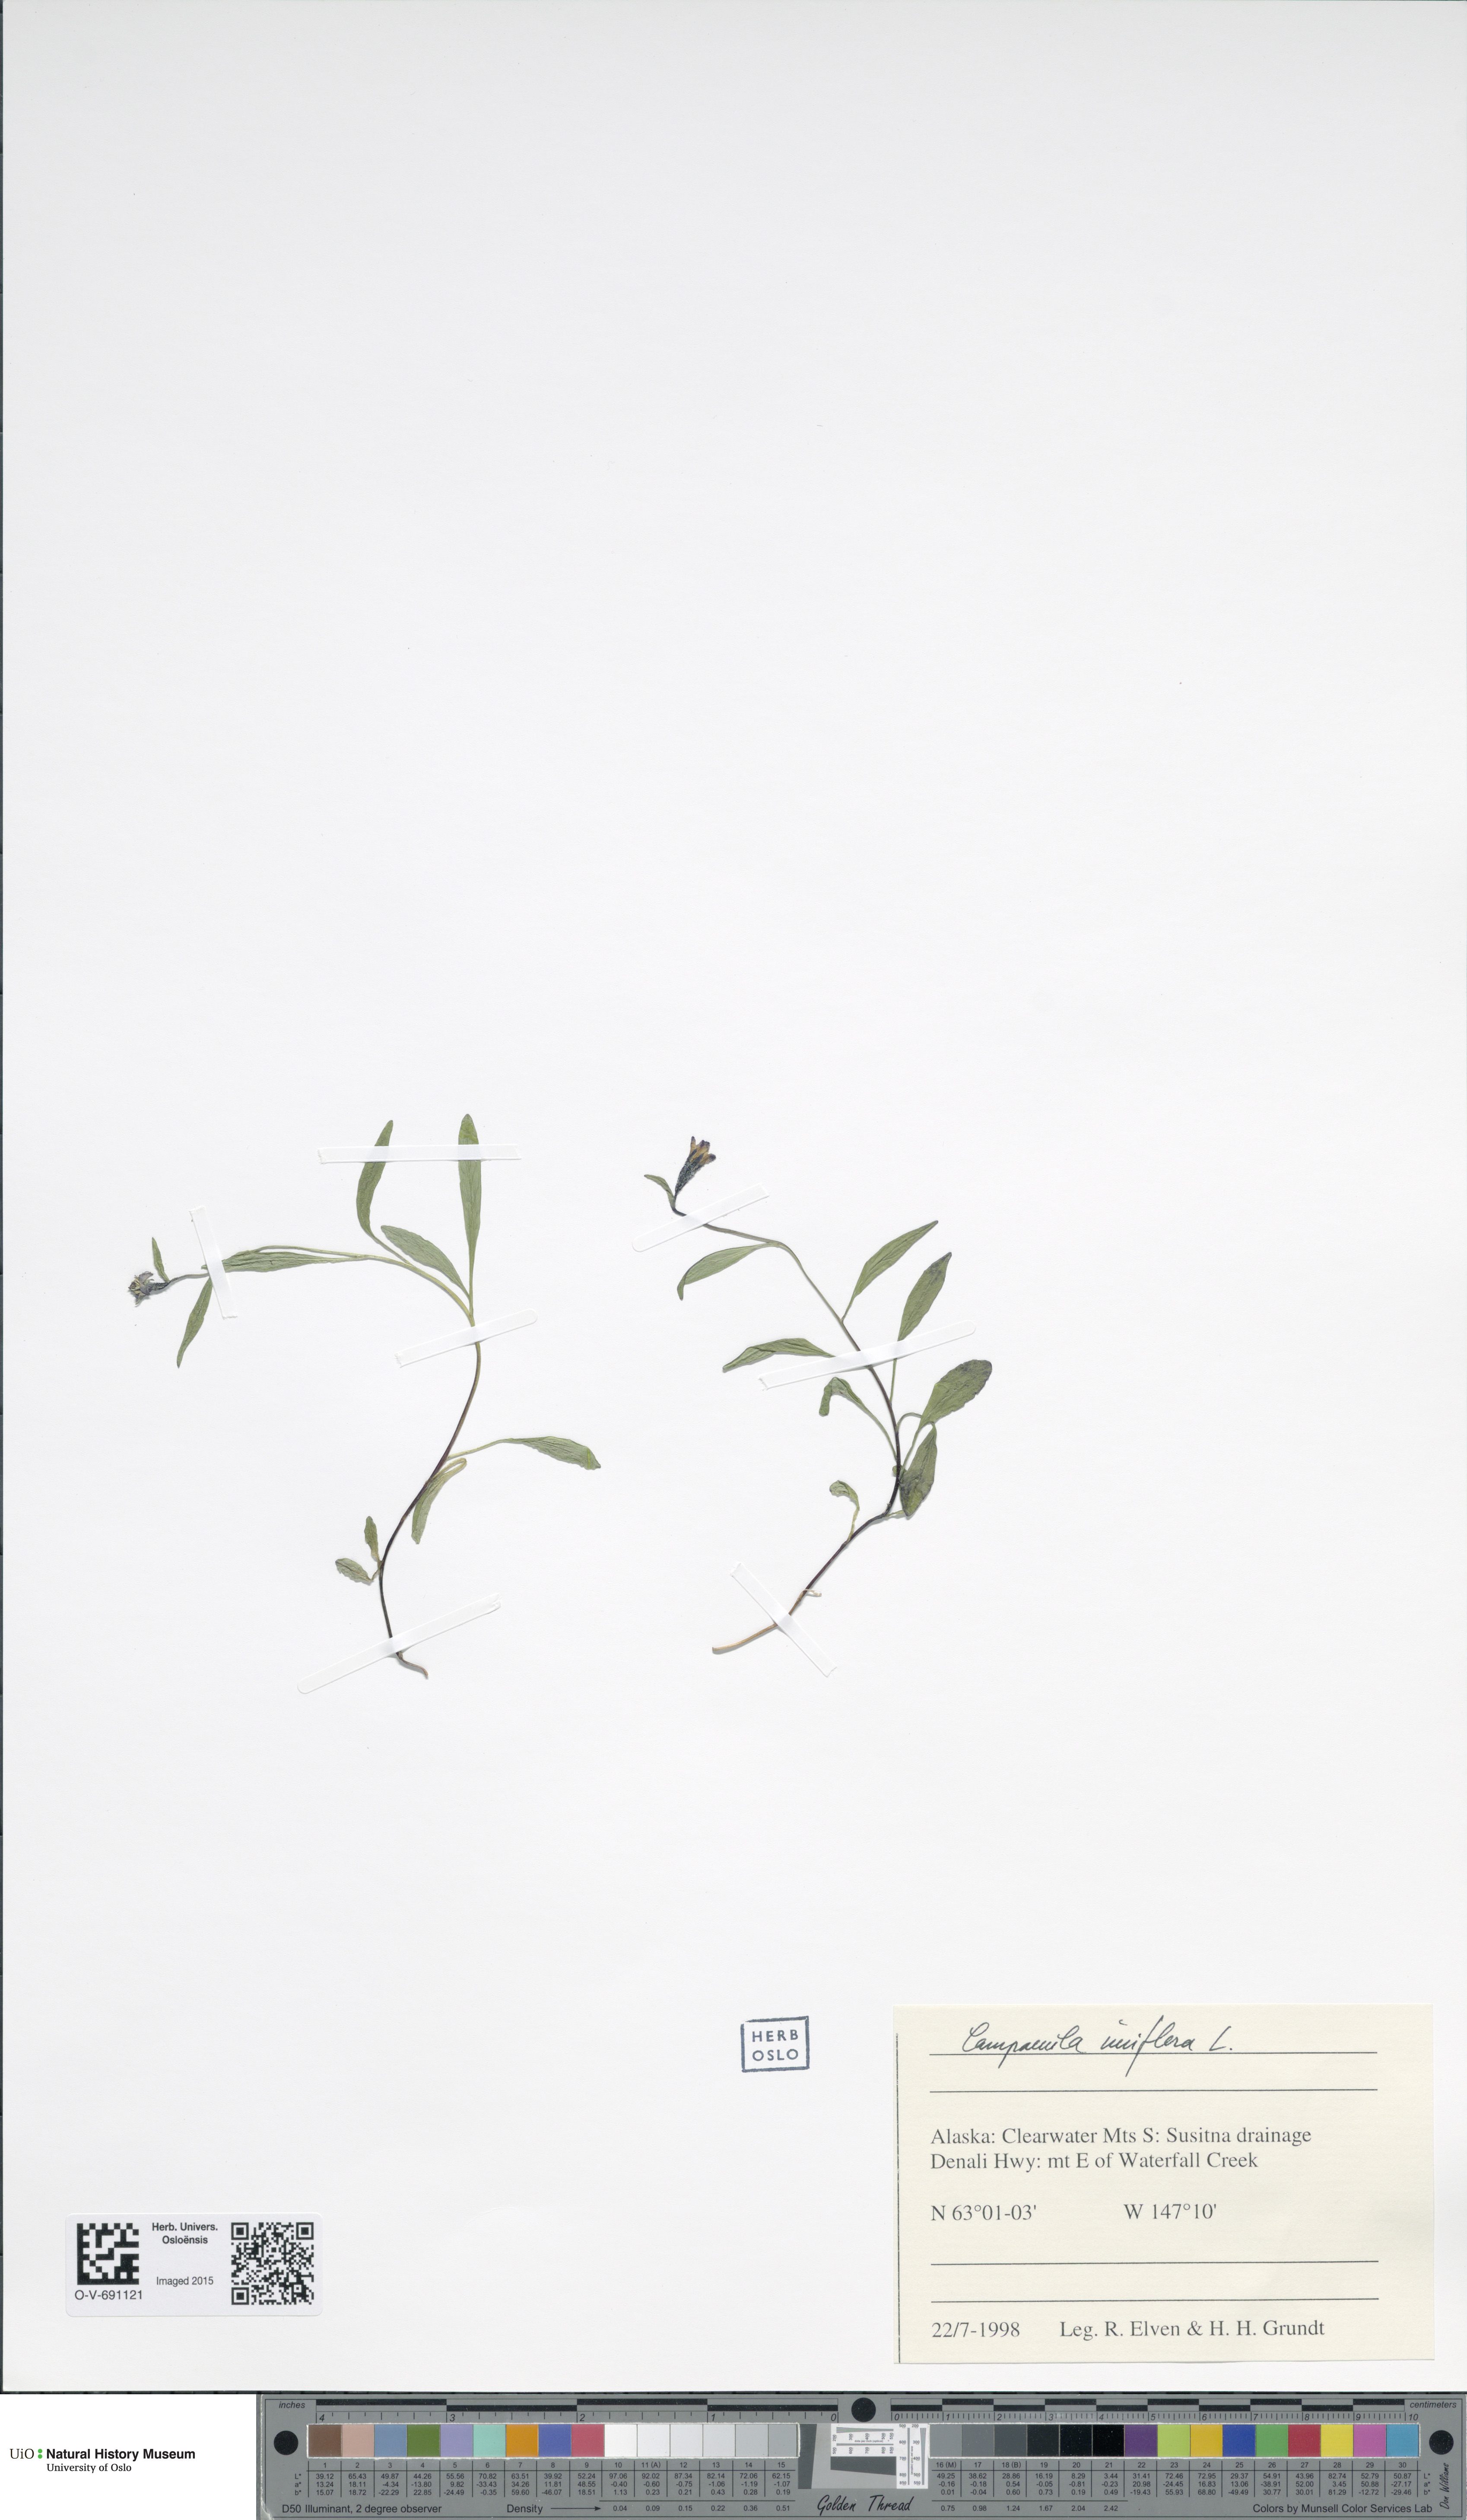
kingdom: Plantae
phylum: Tracheophyta
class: Magnoliopsida
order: Asterales
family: Campanulaceae
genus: Melanocalyx
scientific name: Melanocalyx uniflora
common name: Alpine harebell
